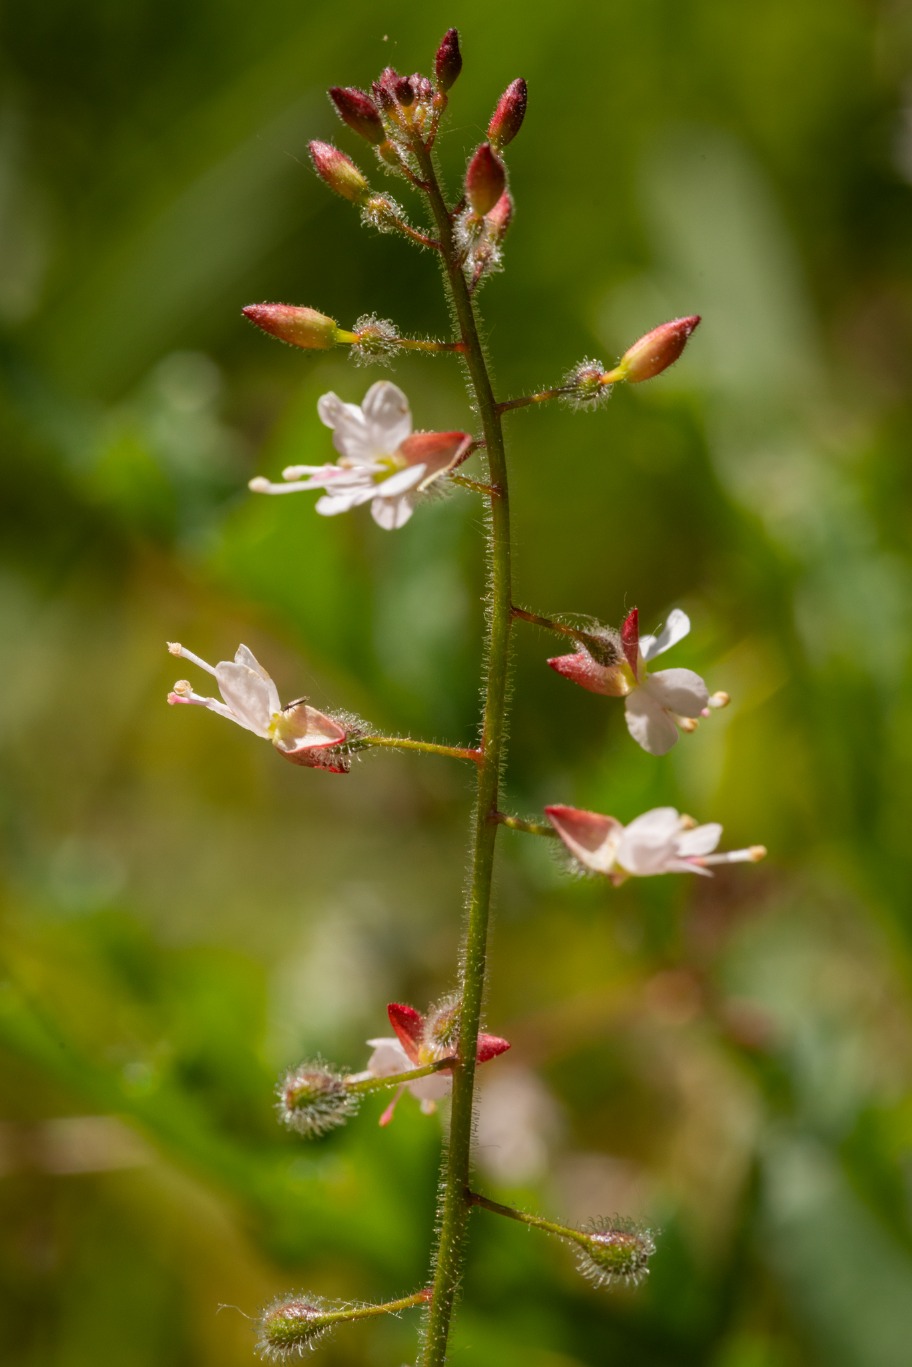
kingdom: Plantae
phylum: Tracheophyta
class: Magnoliopsida
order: Myrtales
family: Onagraceae
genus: Circaea
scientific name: Circaea lutetiana
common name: Dunet steffensurt
